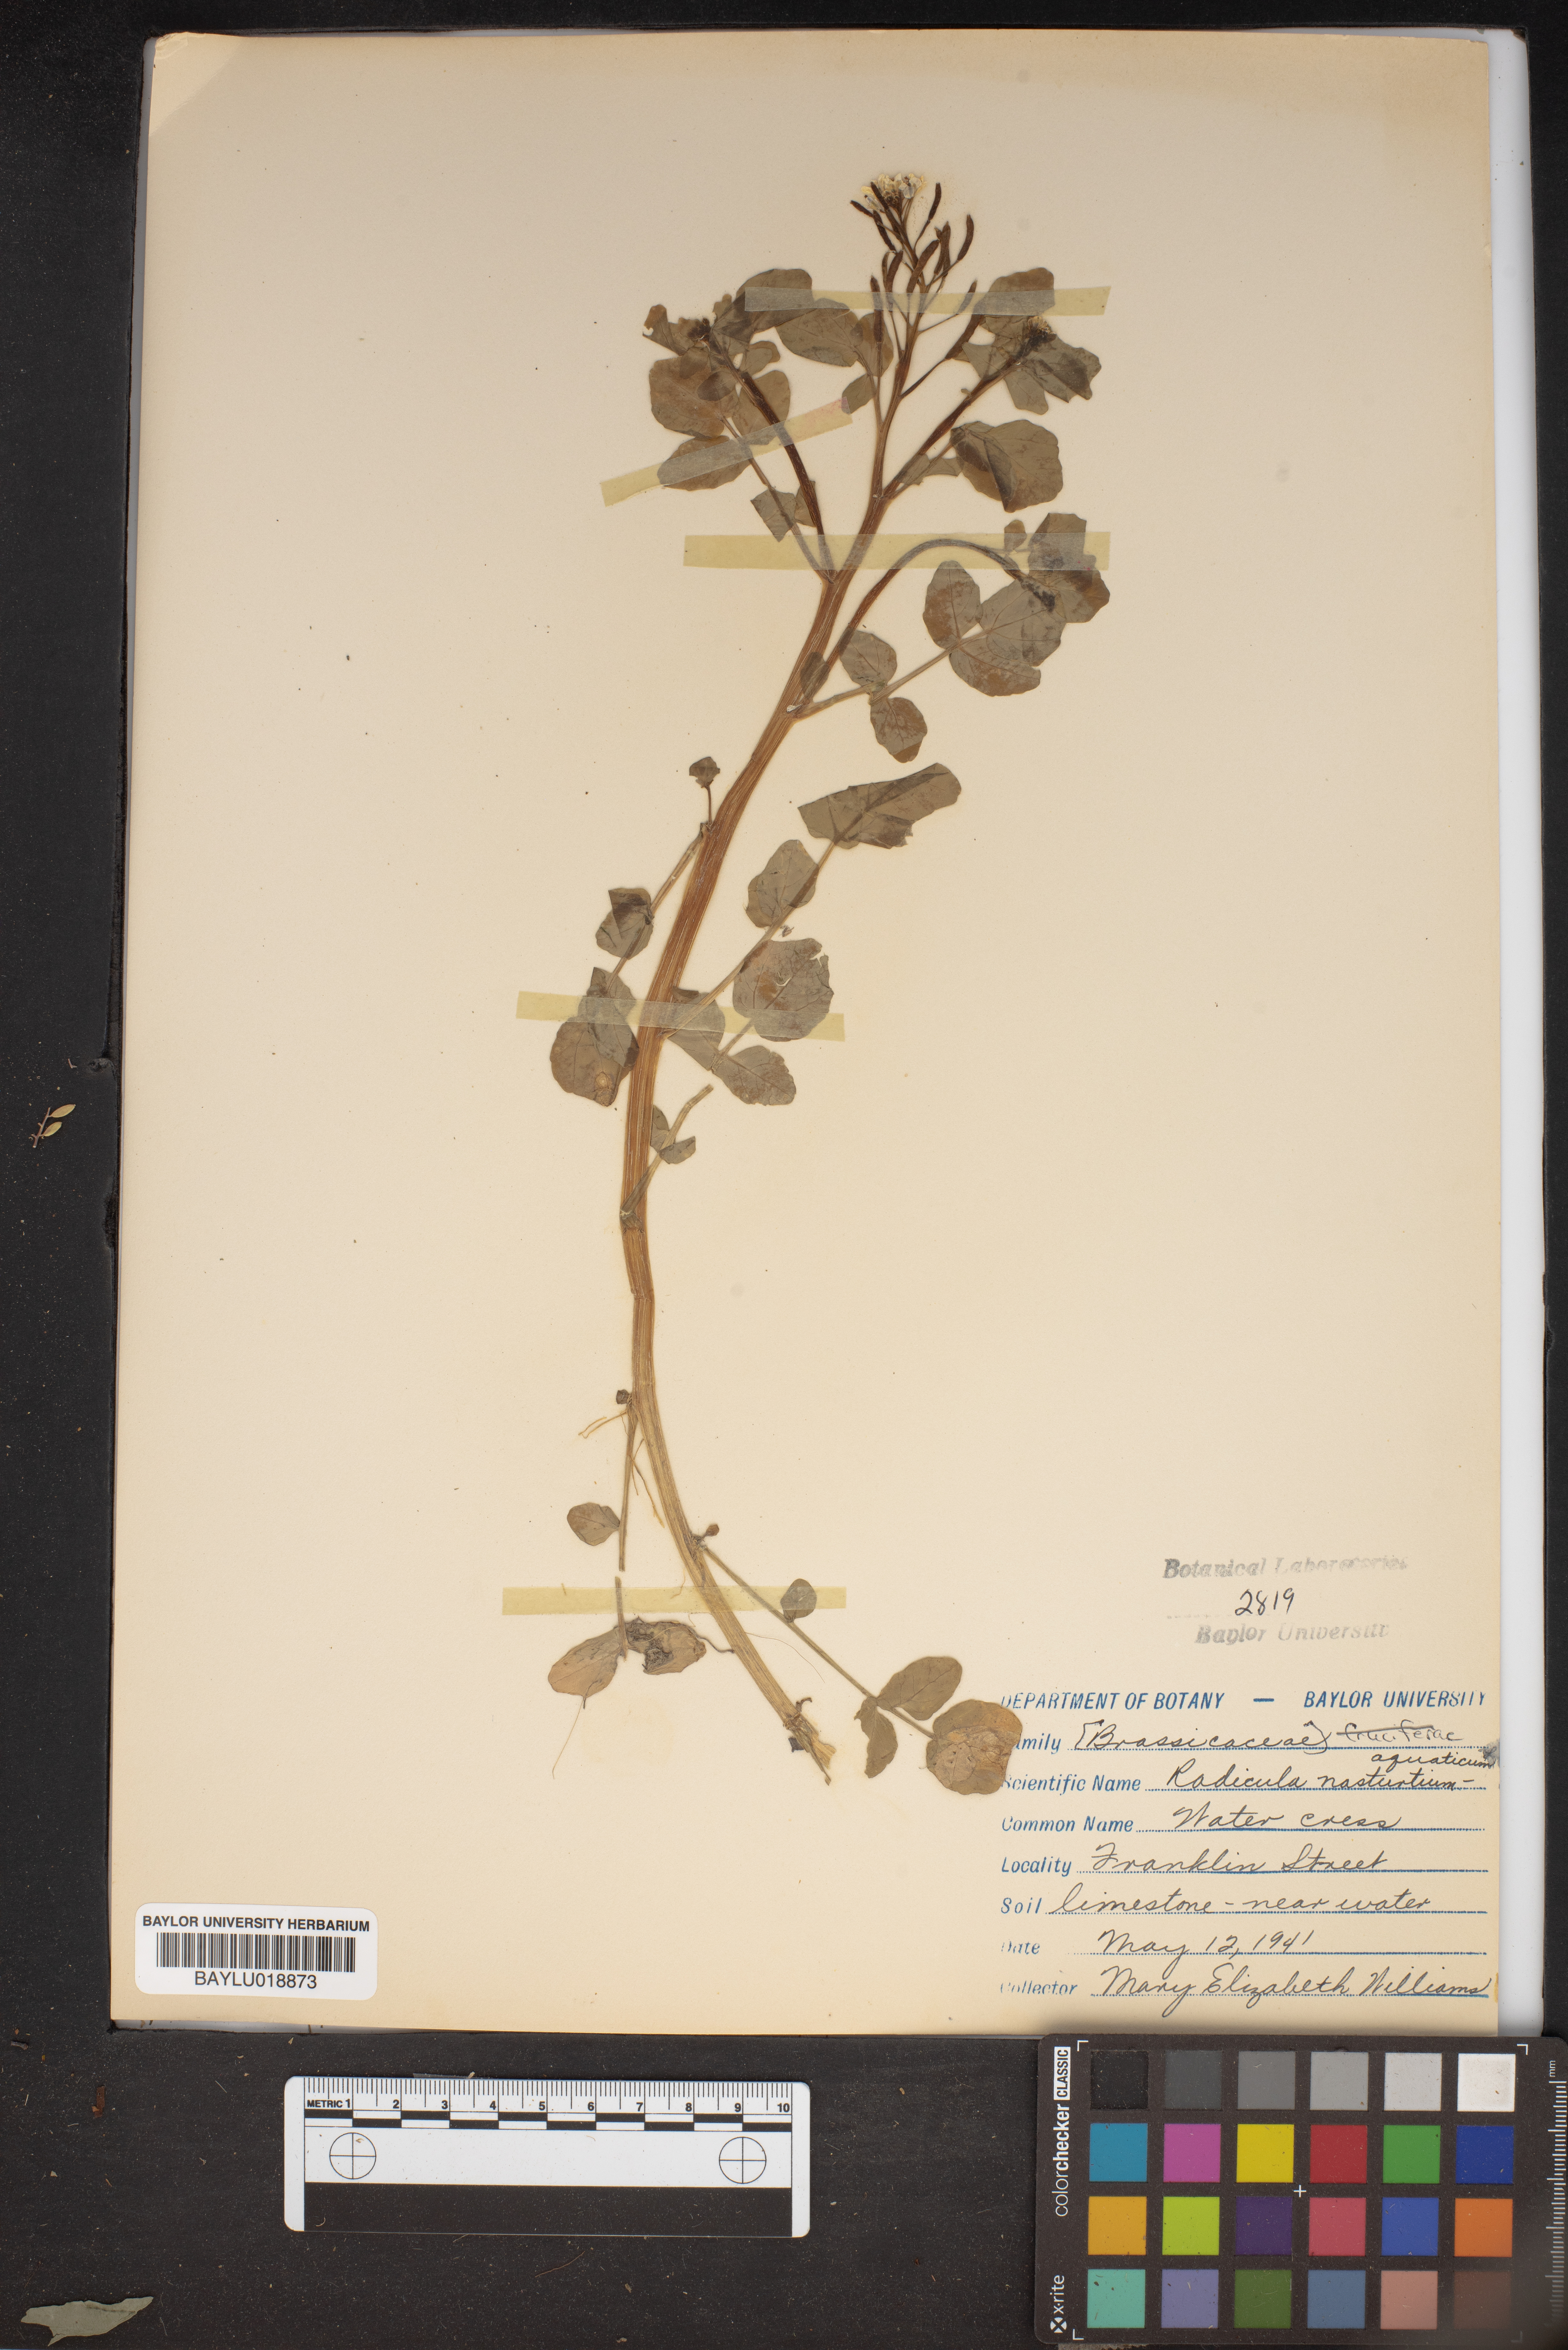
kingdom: Plantae
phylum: Tracheophyta
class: Magnoliopsida
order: Brassicales
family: Brassicaceae
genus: Nasturtium
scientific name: Nasturtium officinale
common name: Watercress
